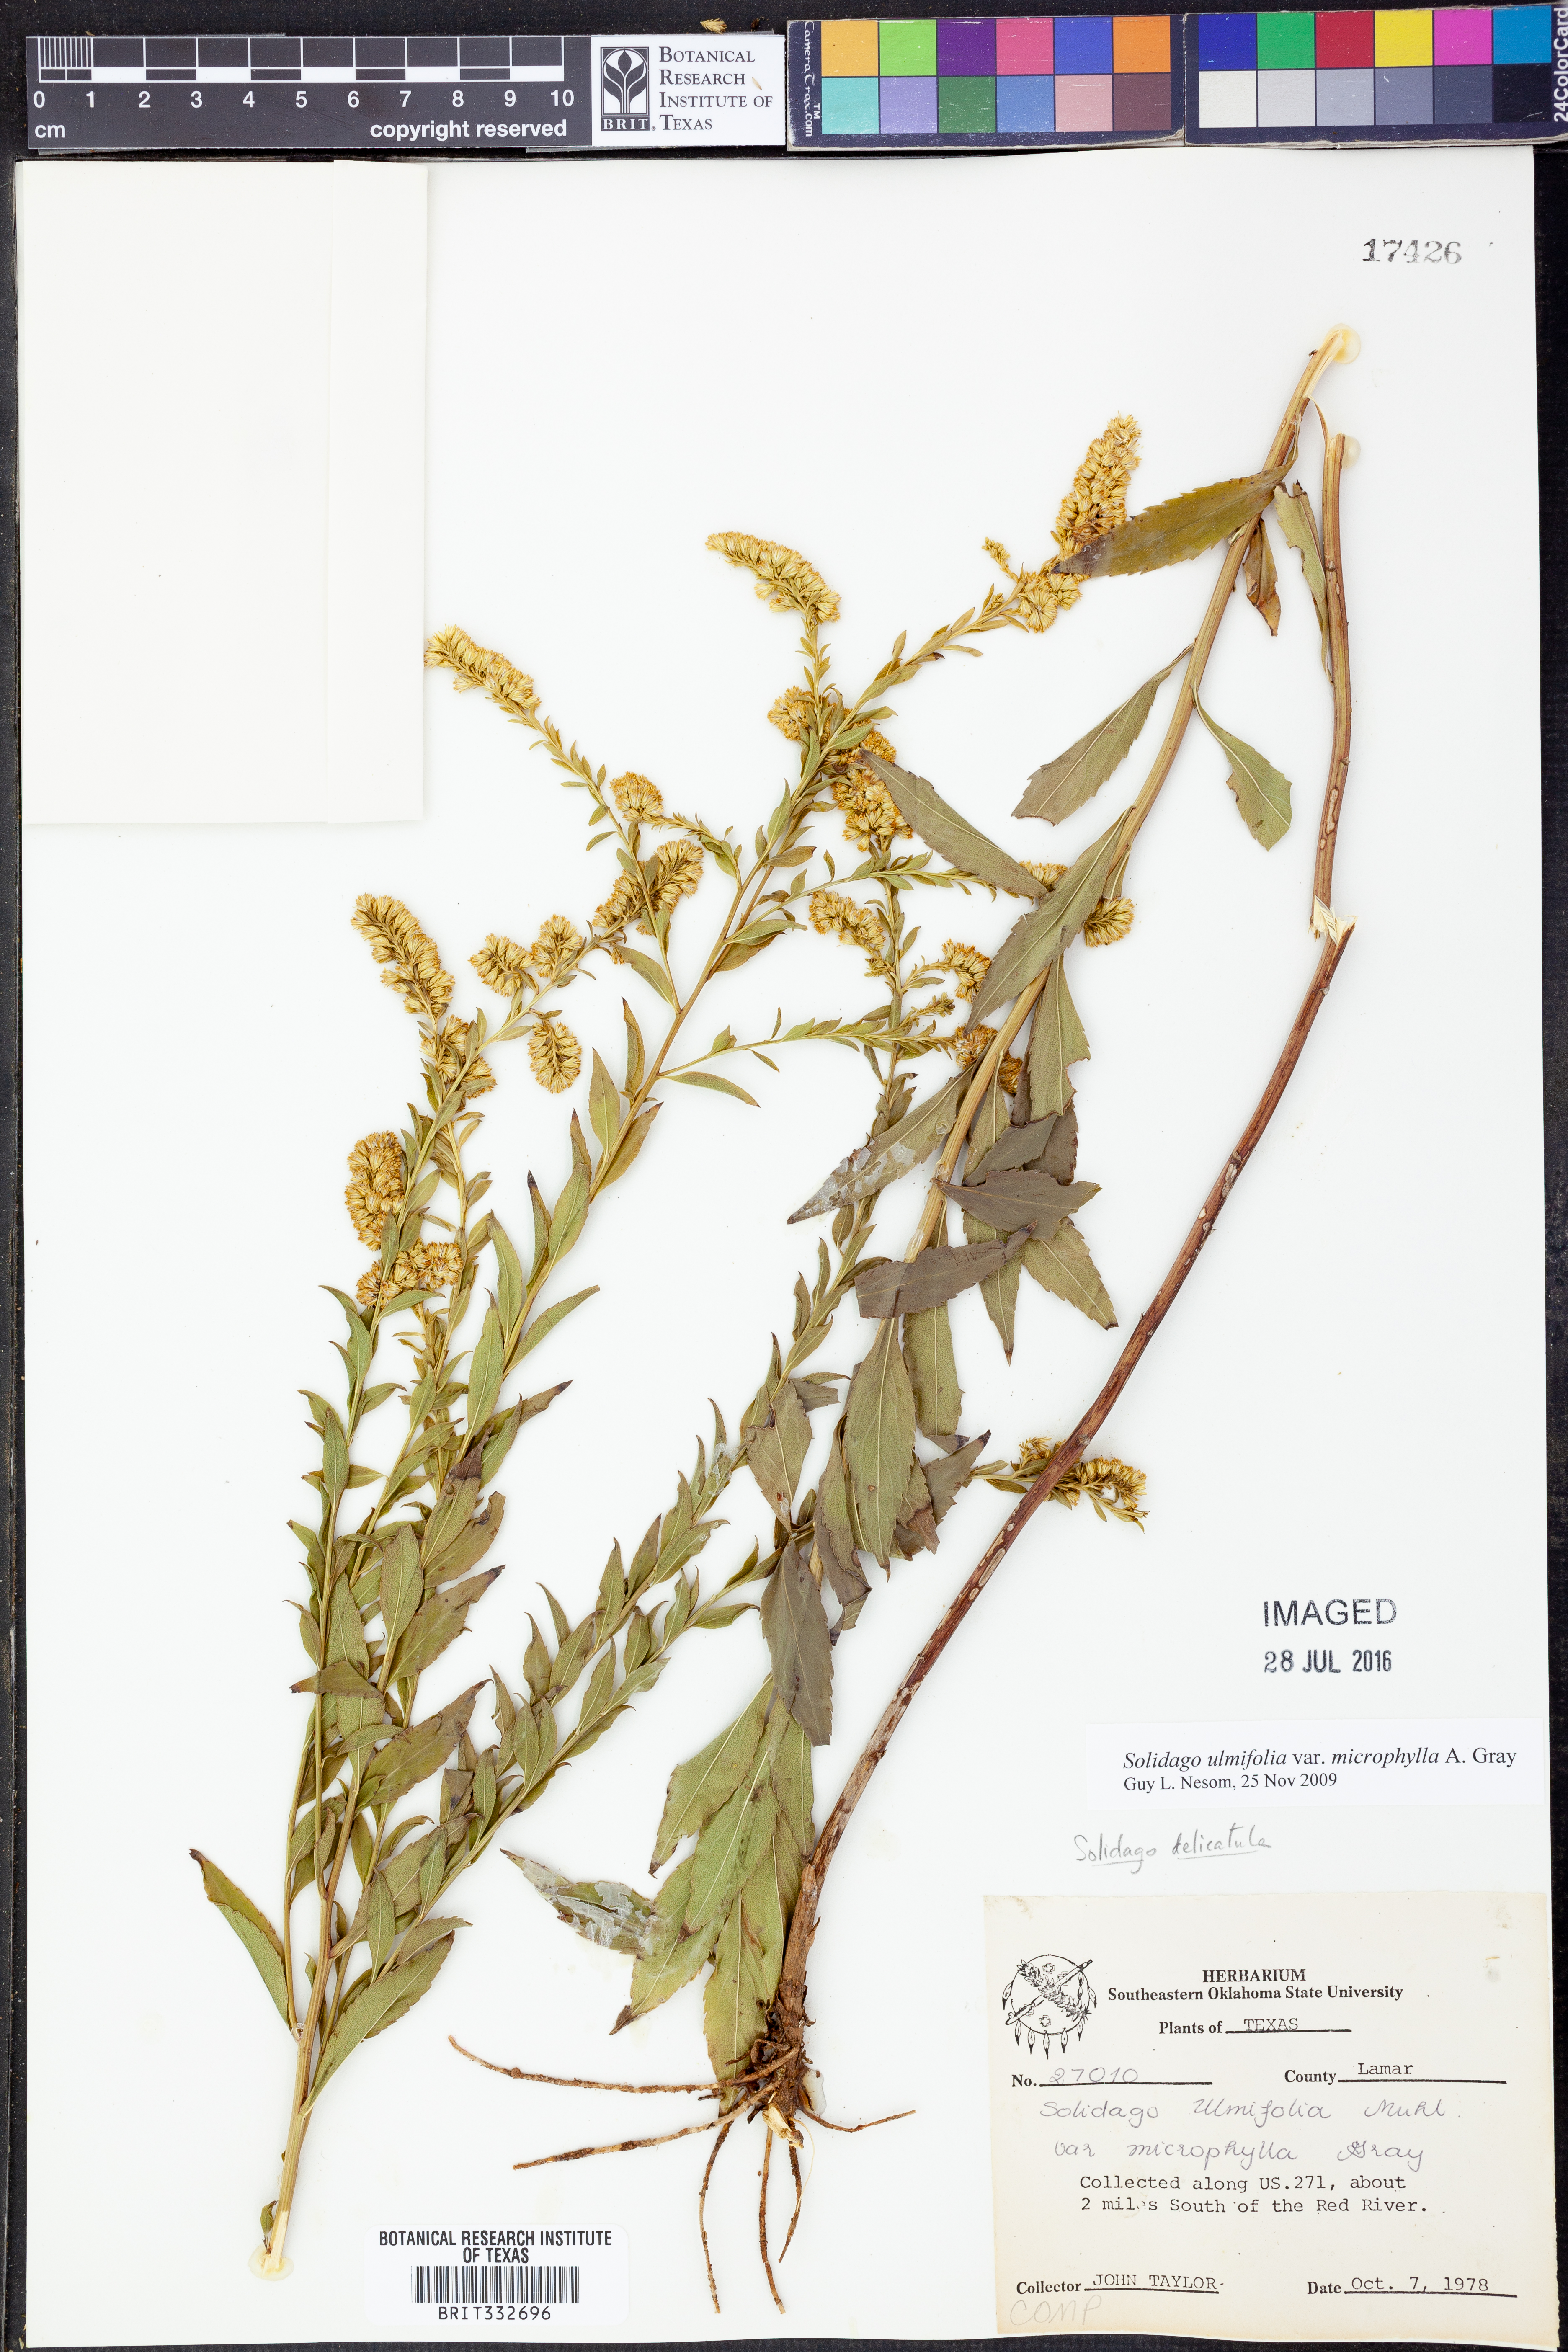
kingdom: Plantae
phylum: Tracheophyta
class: Magnoliopsida
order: Asterales
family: Asteraceae
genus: Solidago
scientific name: Solidago delicatula
